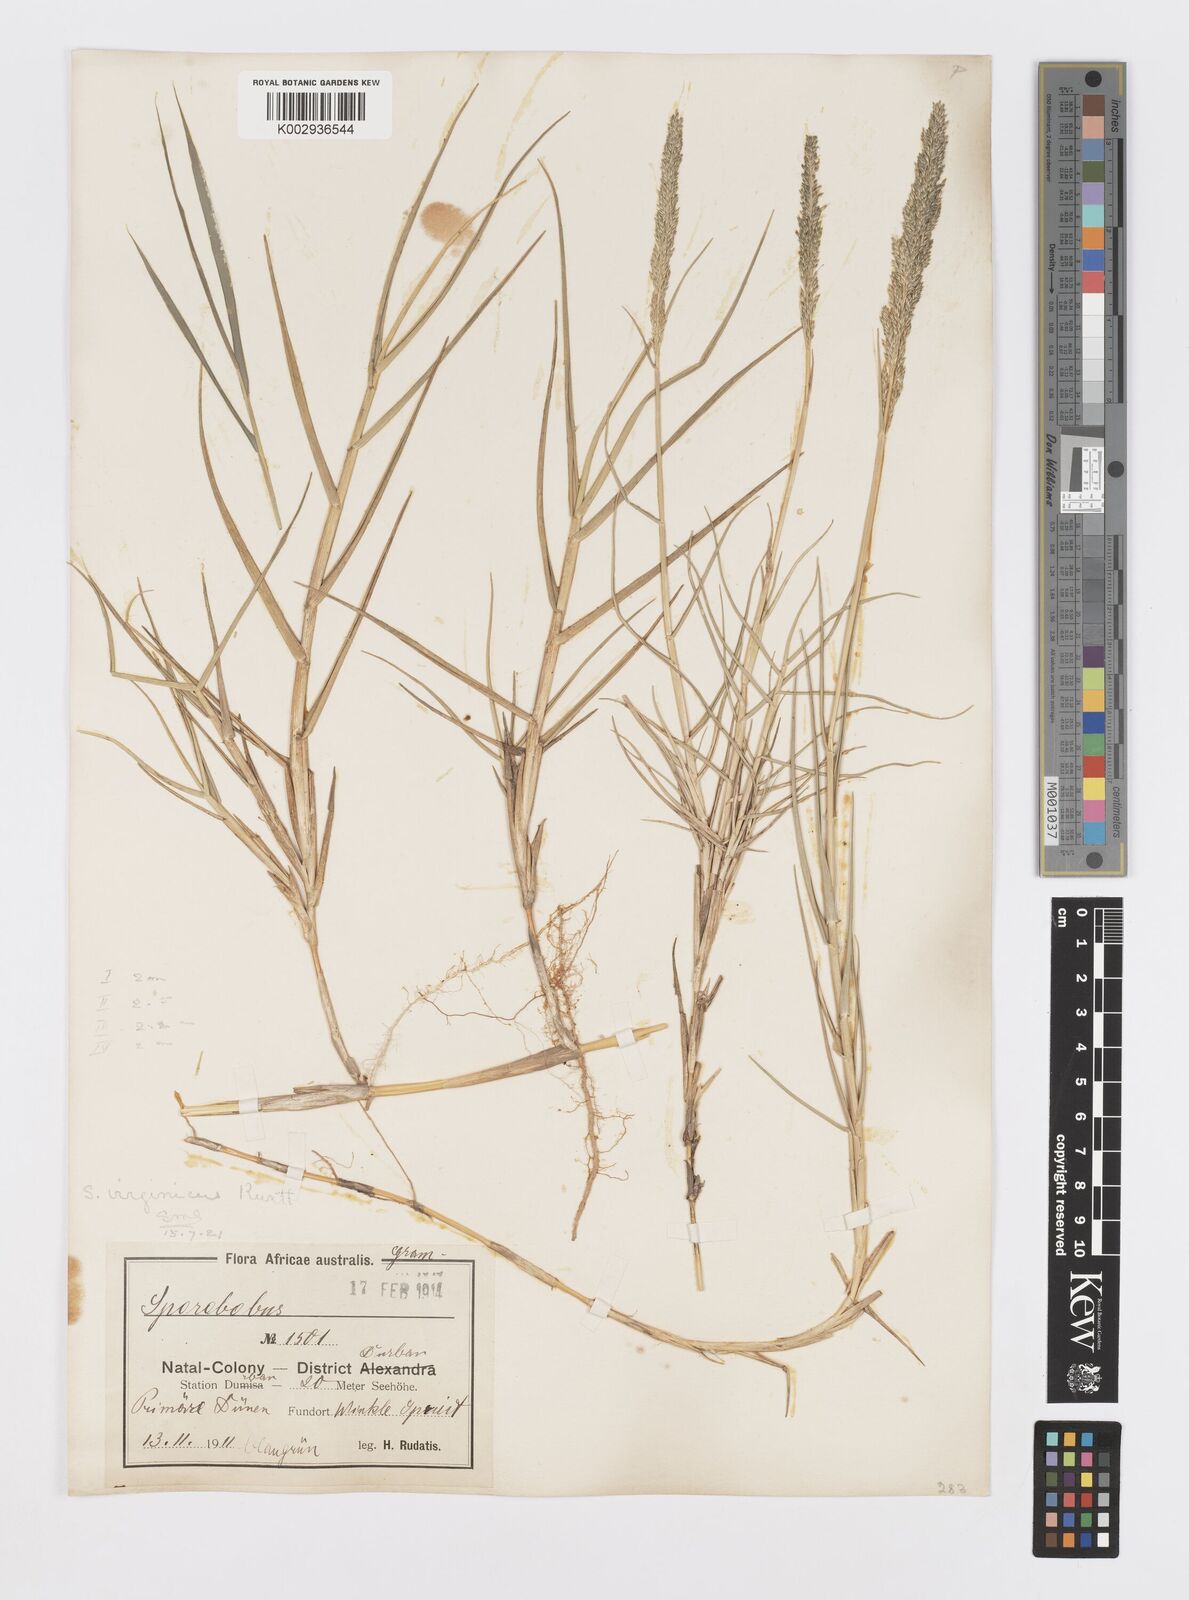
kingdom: Plantae
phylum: Tracheophyta
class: Liliopsida
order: Poales
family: Poaceae
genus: Sporobolus
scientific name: Sporobolus virginicus
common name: Beach dropseed
